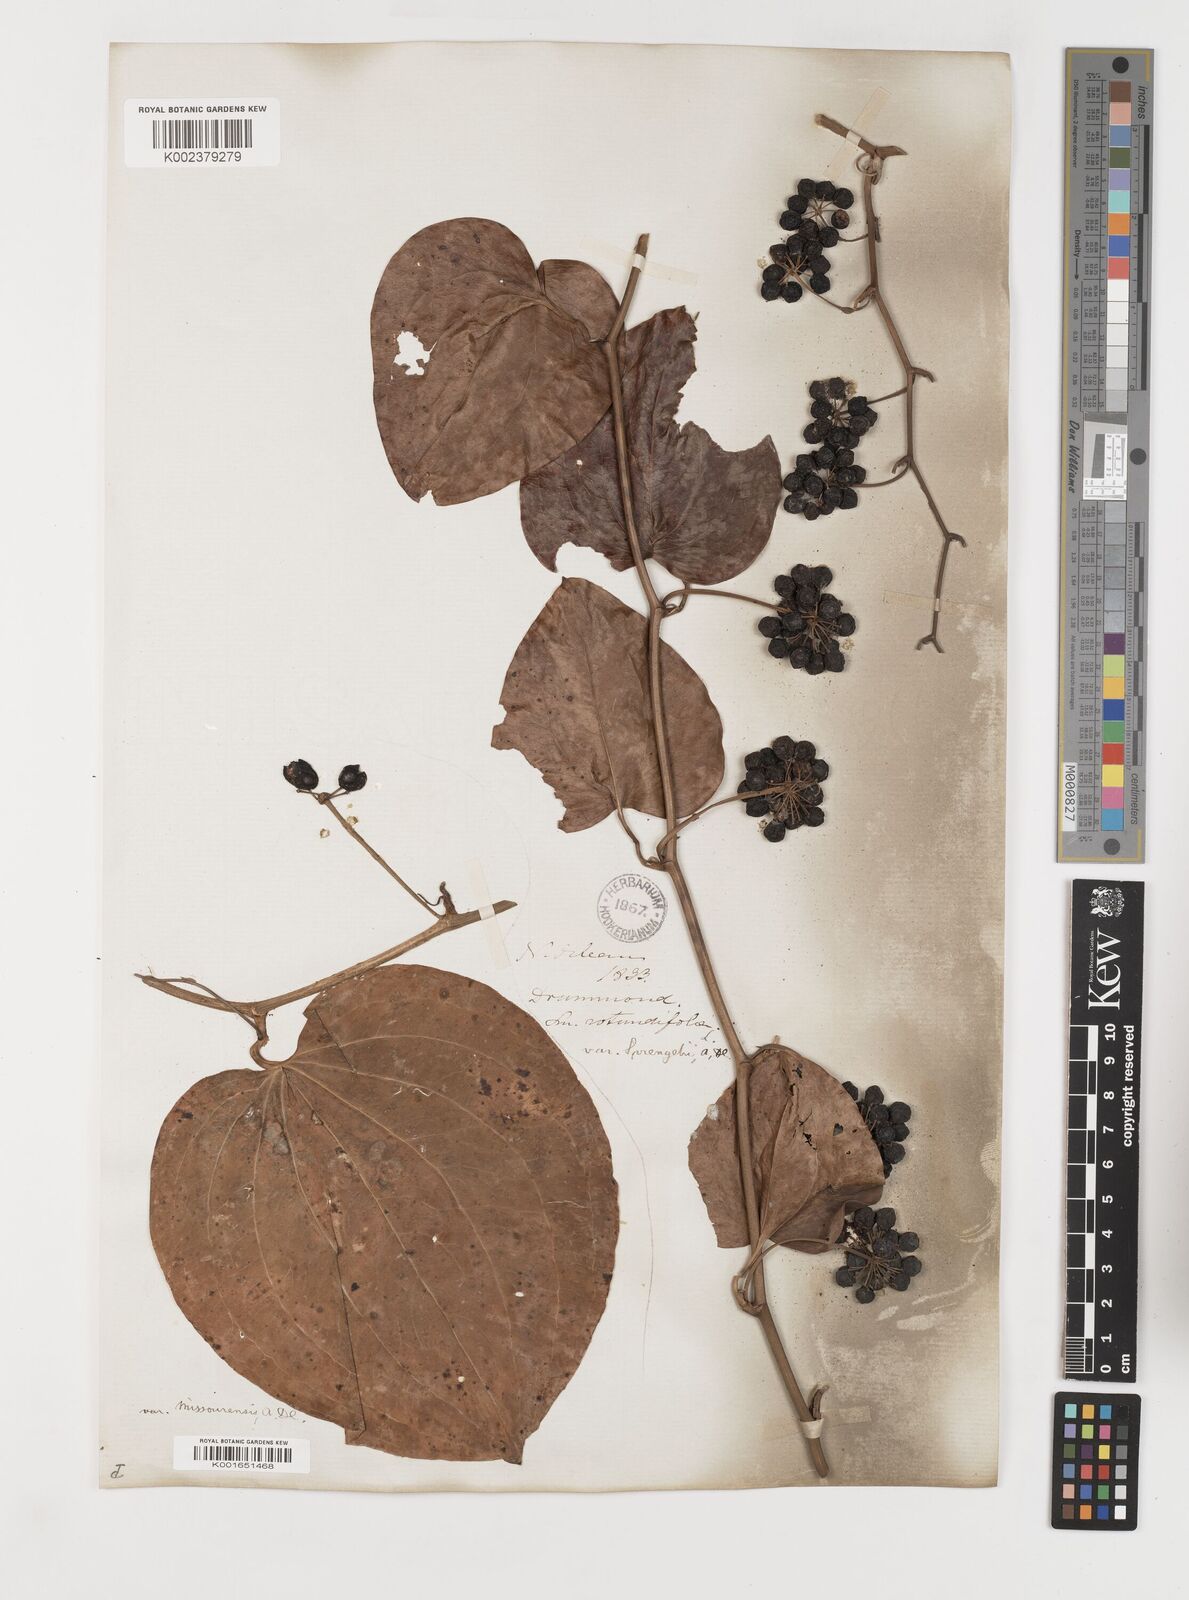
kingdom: Plantae
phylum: Tracheophyta
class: Liliopsida
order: Liliales
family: Smilacaceae
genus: Smilax
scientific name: Smilax rotundifolia
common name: Bullbriar
